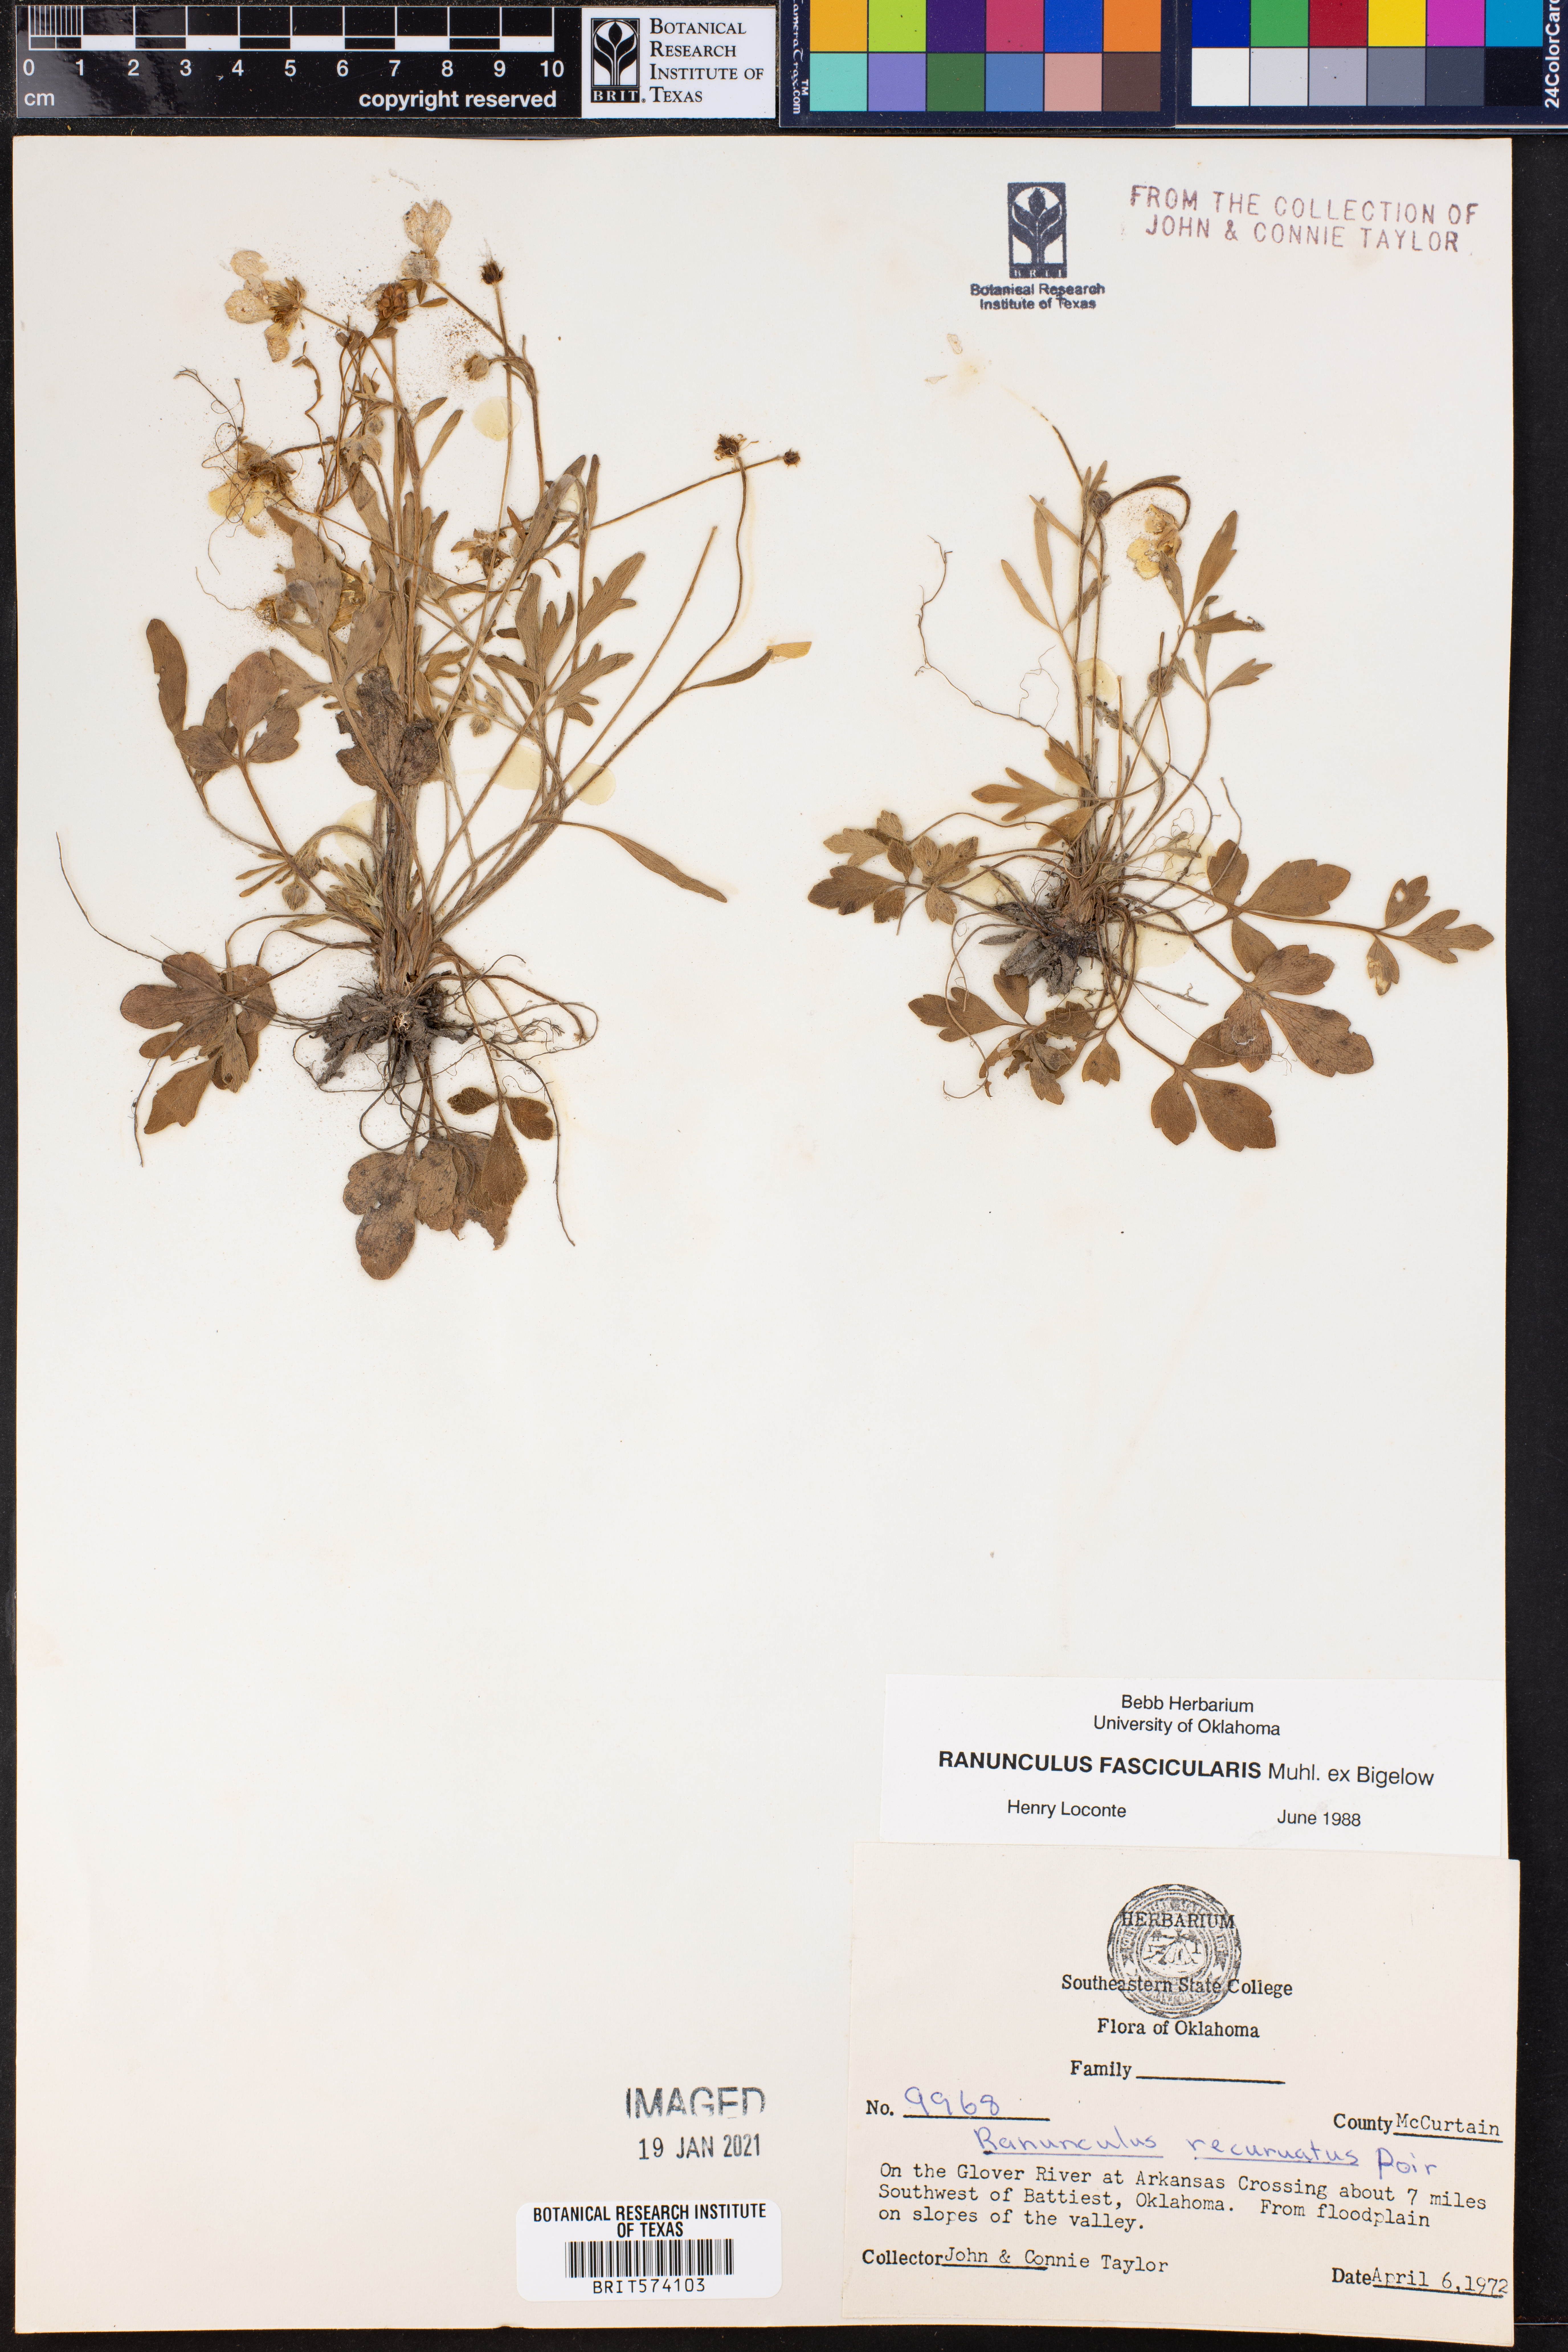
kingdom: Plantae
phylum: Tracheophyta
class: Magnoliopsida
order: Ranunculales
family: Ranunculaceae
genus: Ranunculus
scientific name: Ranunculus fascicularis
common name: Early buttercup
